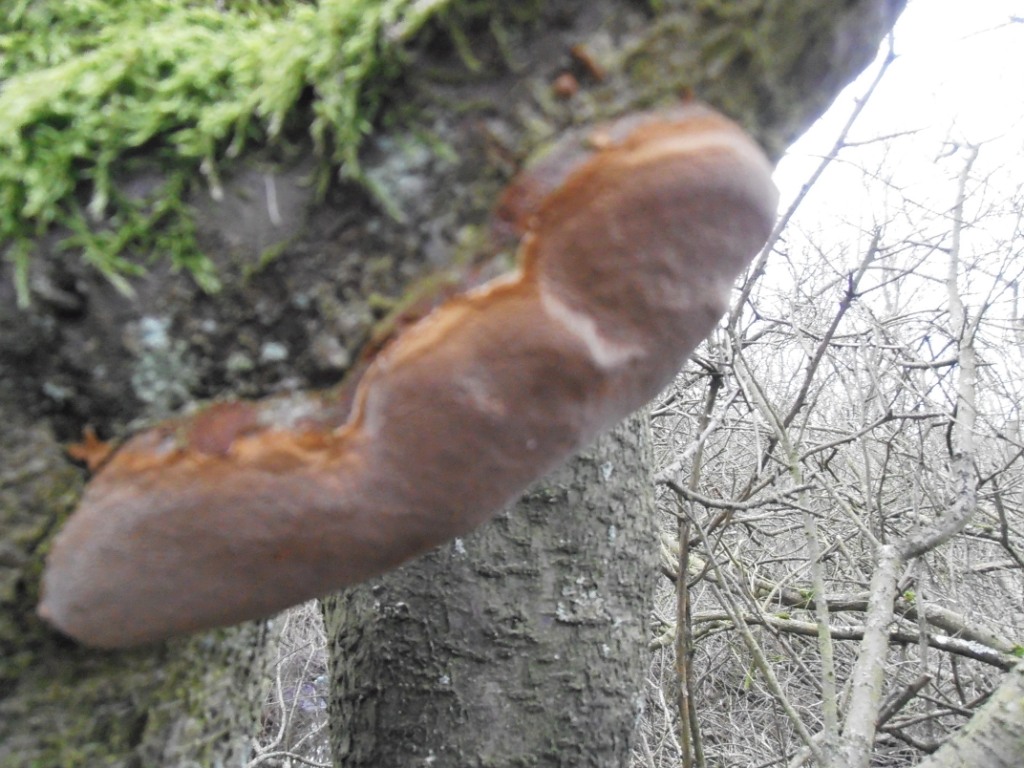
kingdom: Fungi
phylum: Basidiomycota
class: Agaricomycetes
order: Hymenochaetales
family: Hymenochaetaceae
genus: Phellinus
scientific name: Phellinus pomaceus
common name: blomme-ildporesvamp
